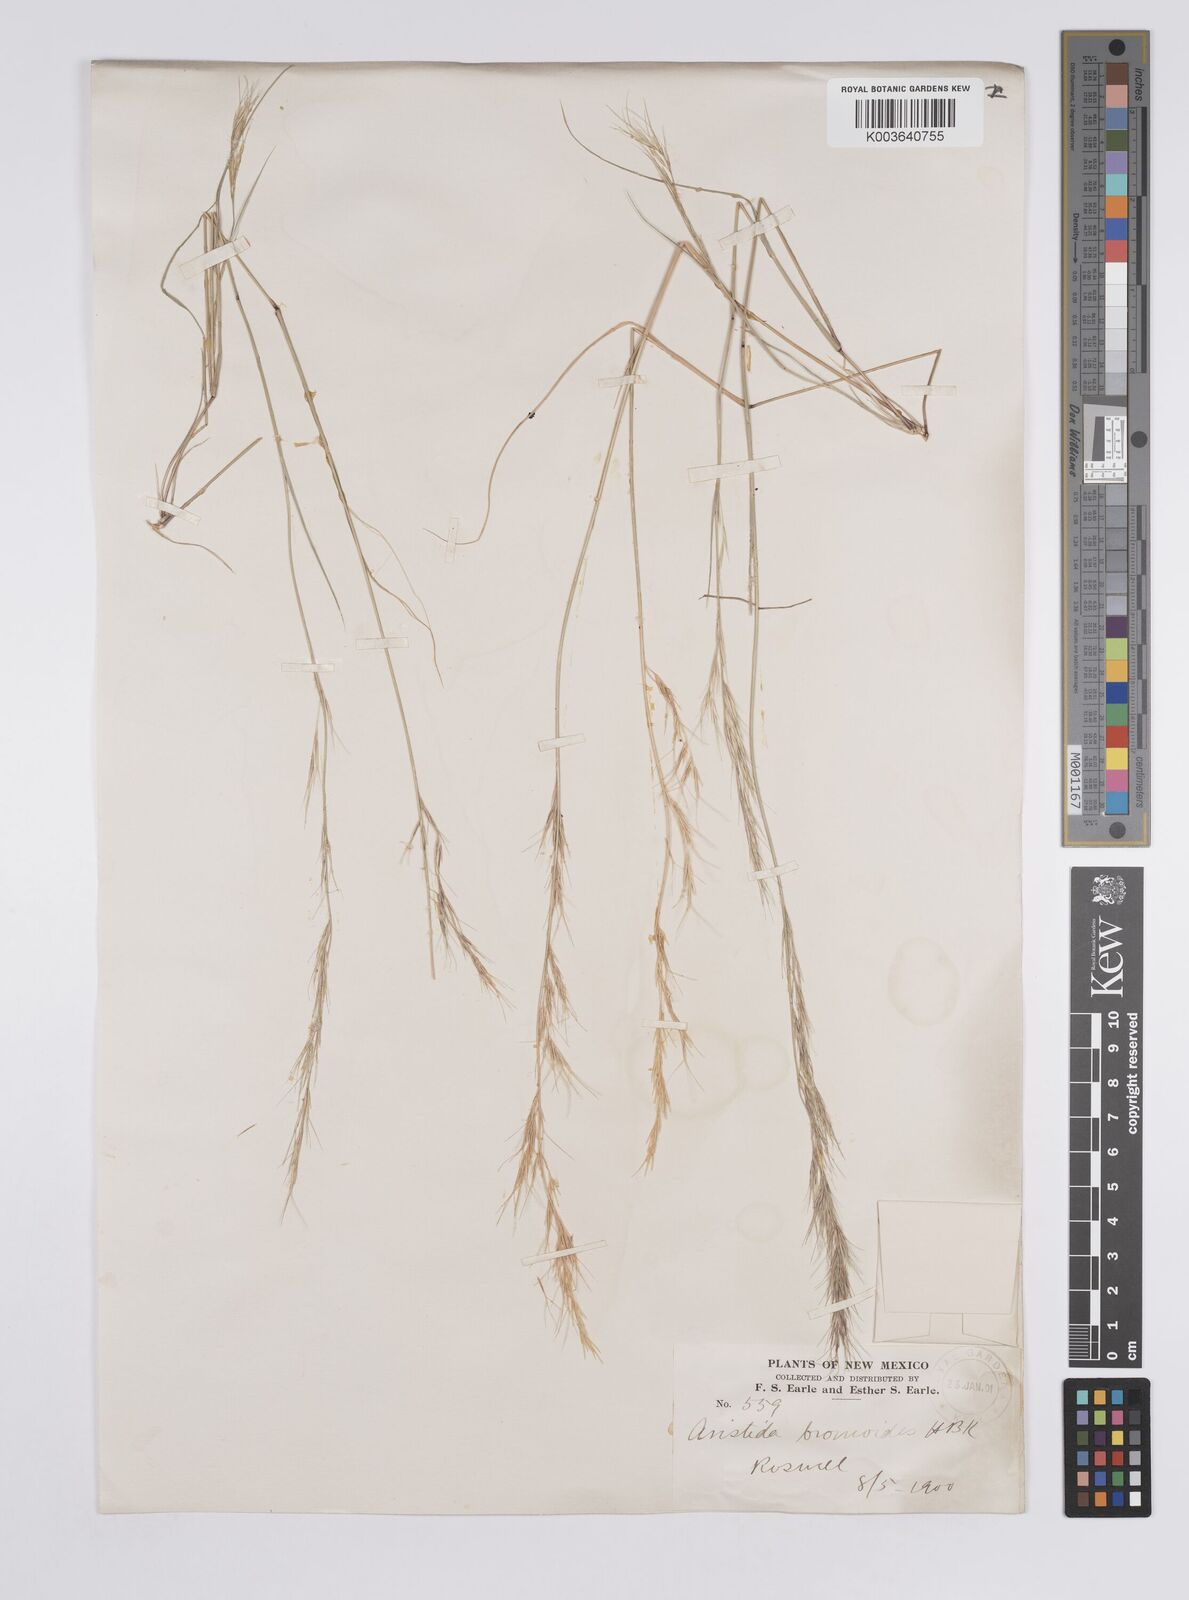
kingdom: Plantae
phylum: Tracheophyta
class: Liliopsida
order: Poales
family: Poaceae
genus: Aristida
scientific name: Aristida adscensionis
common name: Sixweeks threeawn
